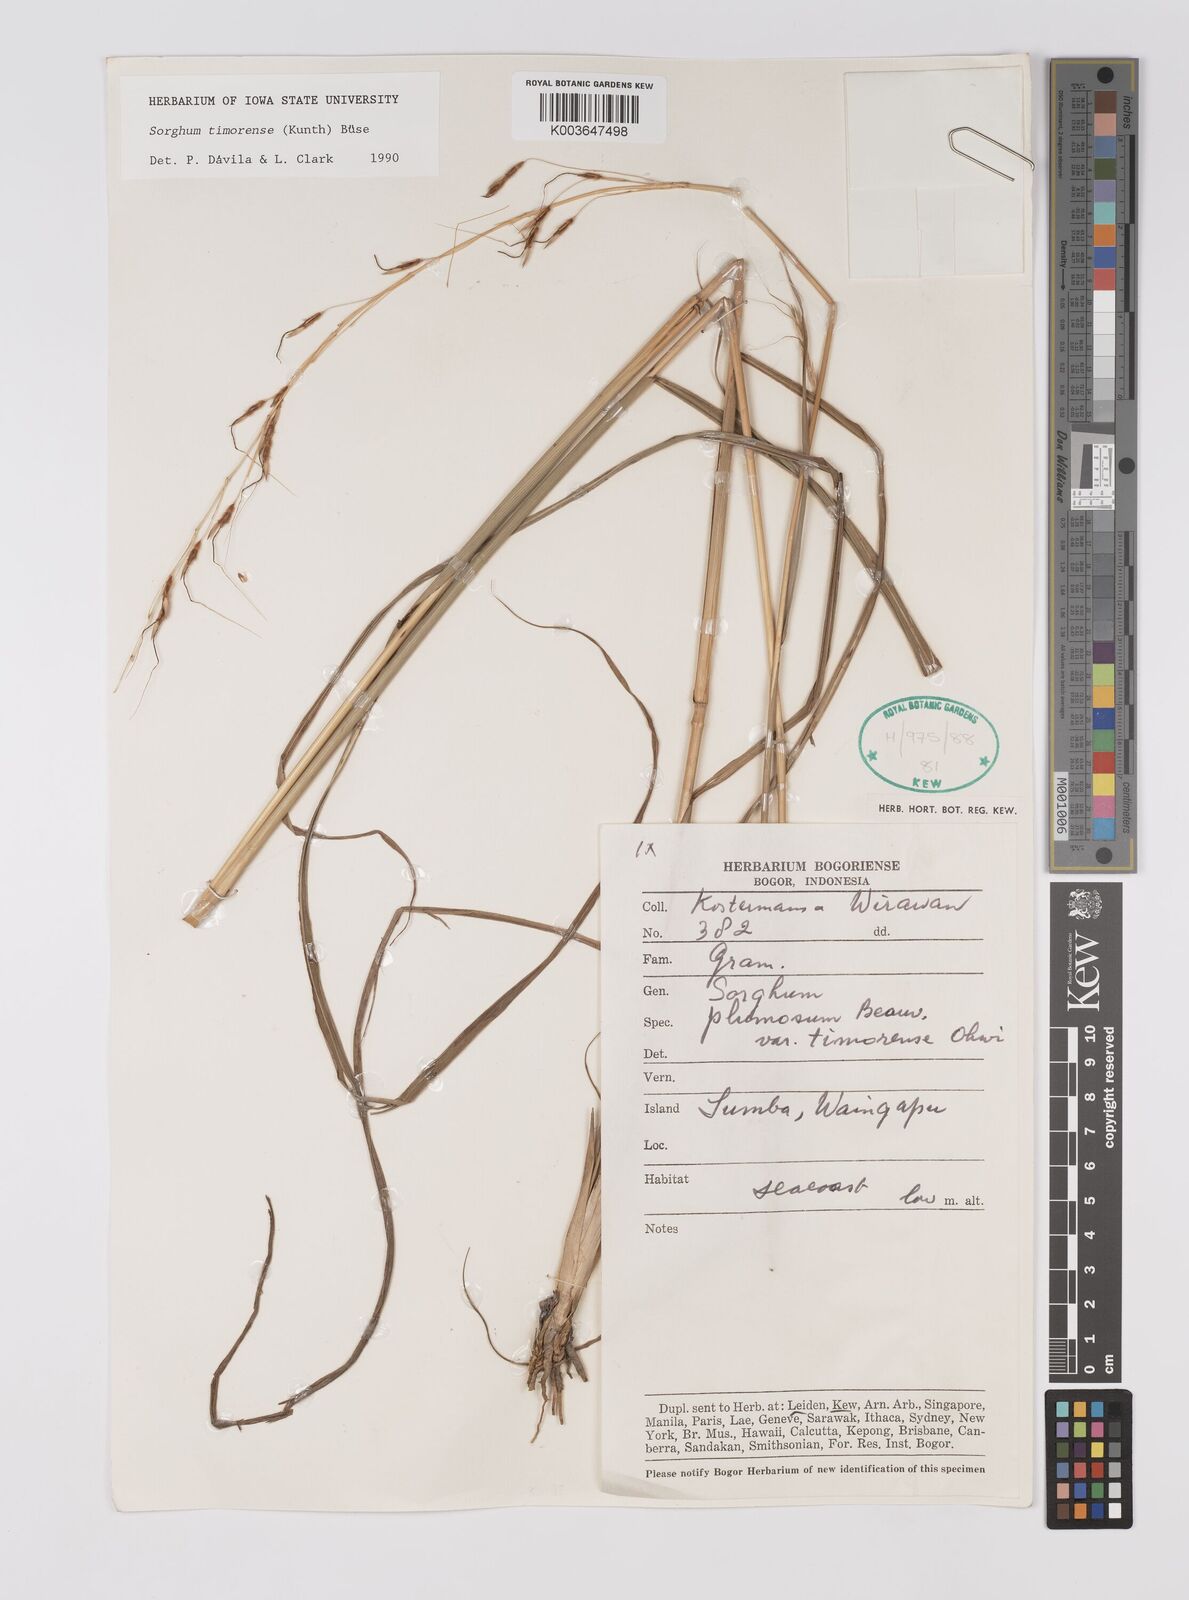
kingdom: Plantae
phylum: Tracheophyta
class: Liliopsida
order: Poales
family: Poaceae
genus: Sarga
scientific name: Sarga timorensis
